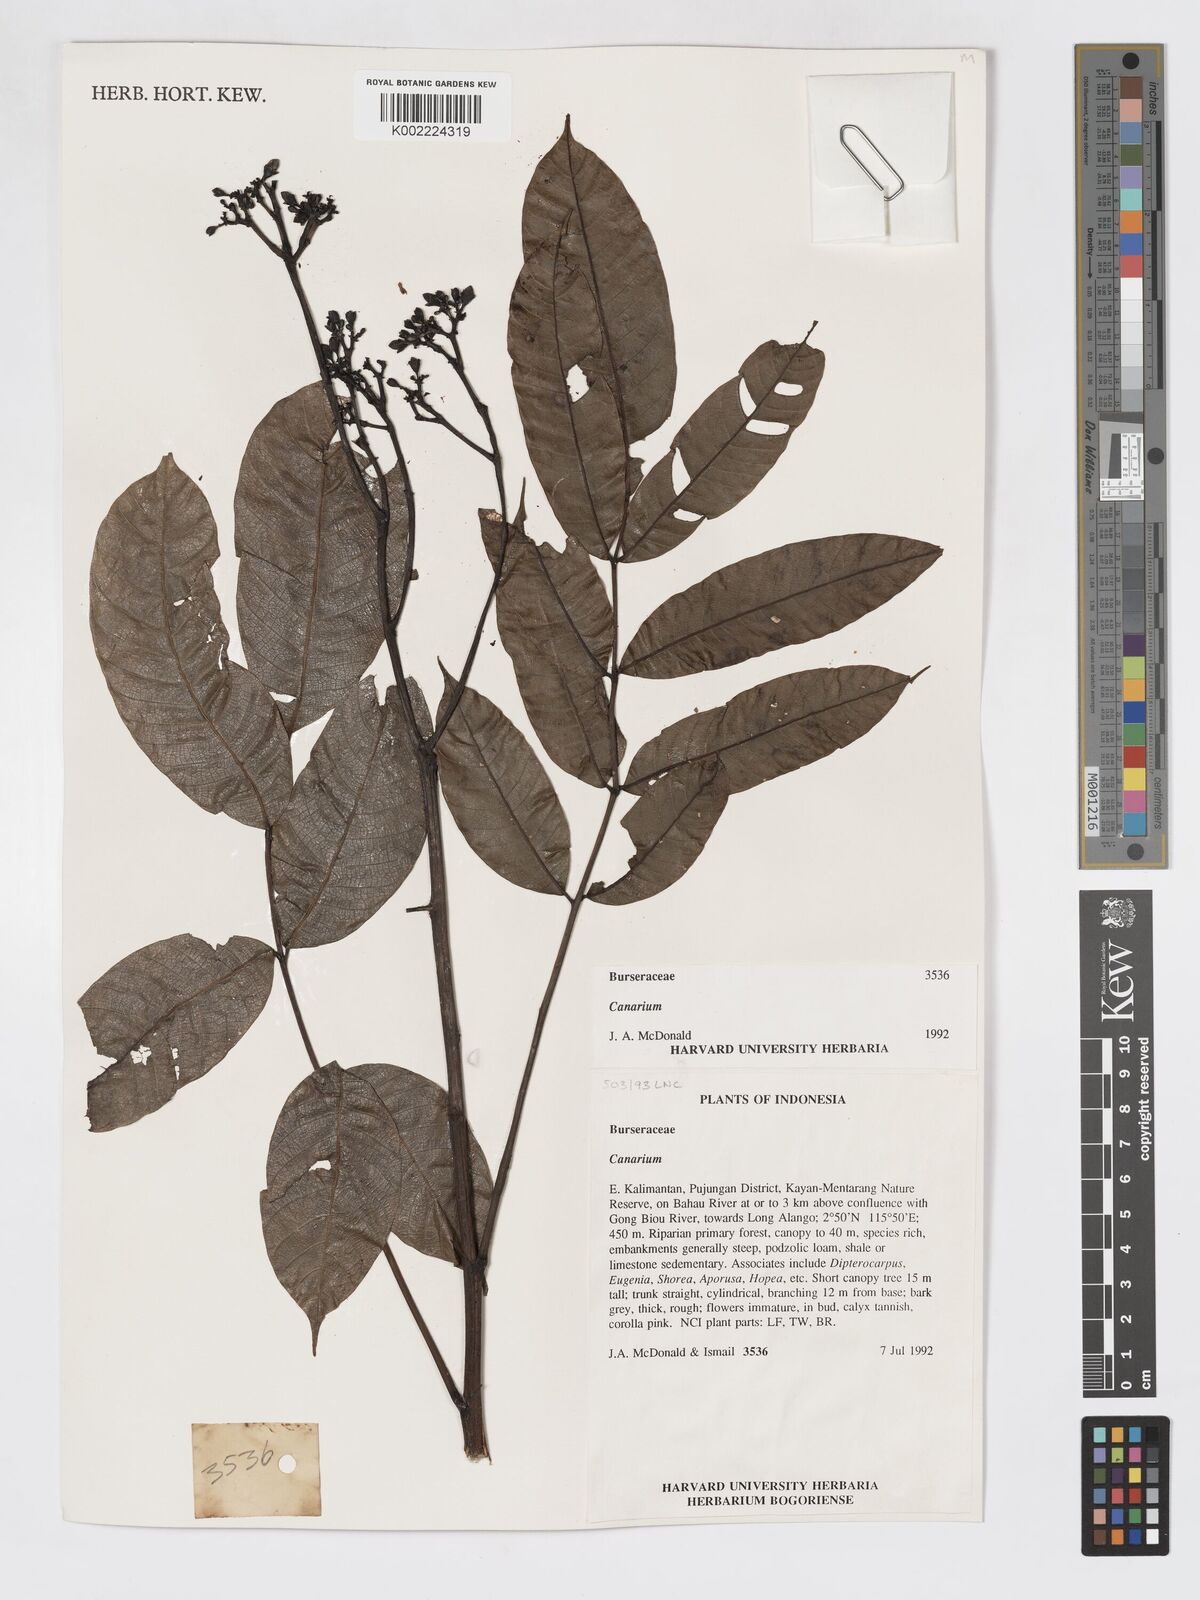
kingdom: Plantae
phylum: Tracheophyta
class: Magnoliopsida
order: Sapindales
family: Burseraceae
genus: Canarium
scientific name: Canarium
